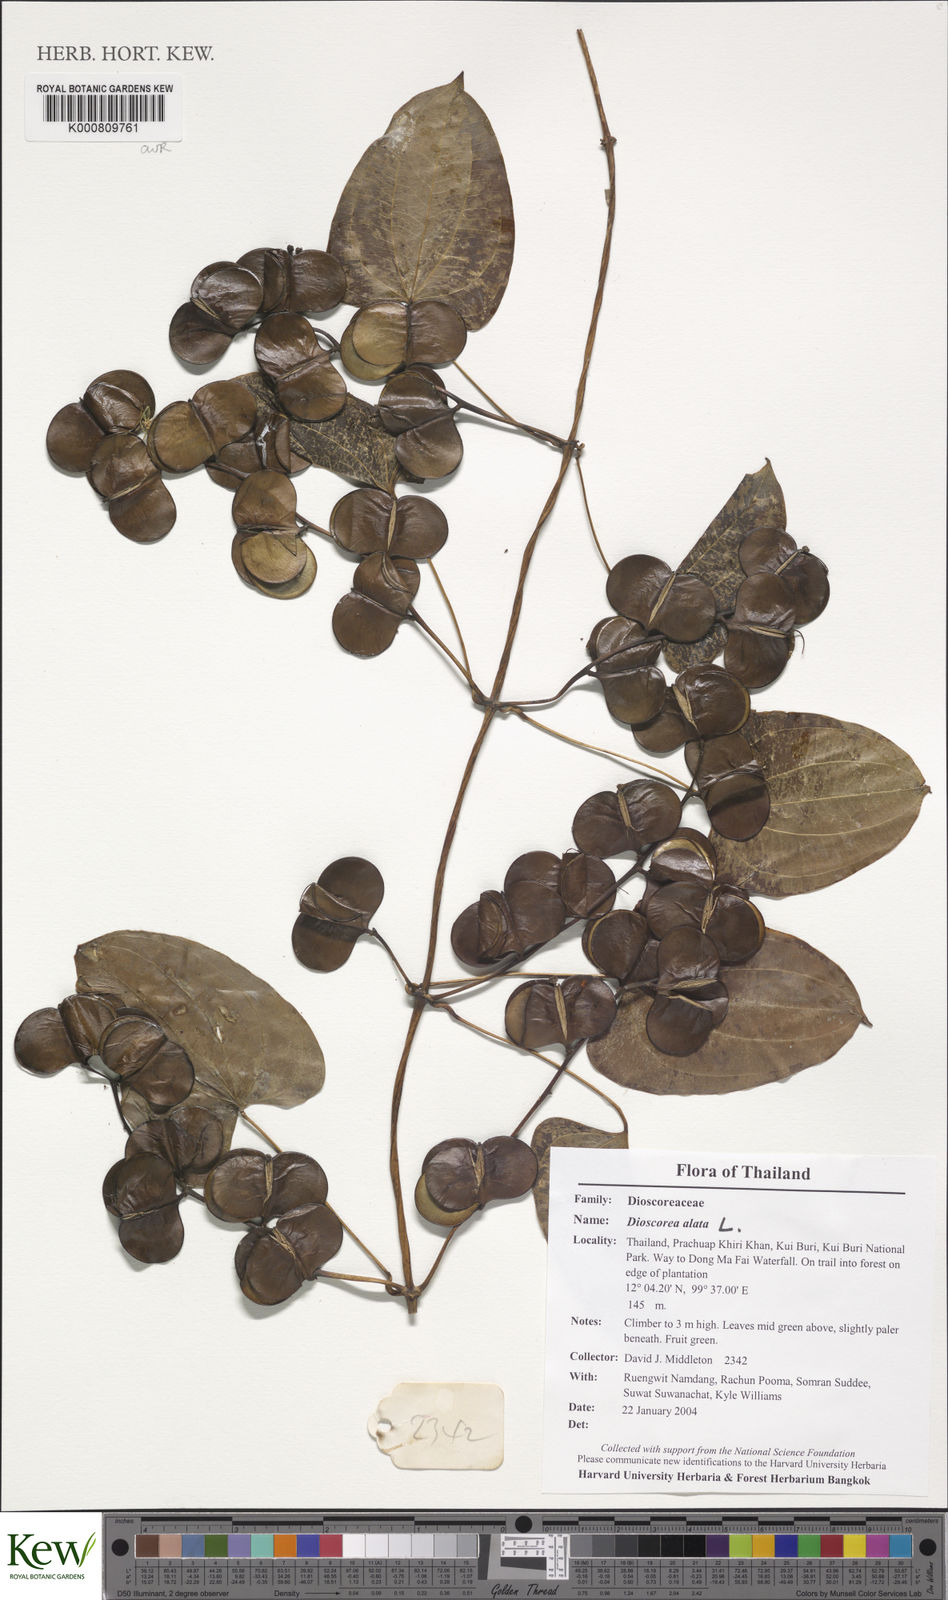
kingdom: Plantae
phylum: Tracheophyta
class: Liliopsida
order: Dioscoreales
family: Dioscoreaceae
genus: Dioscorea
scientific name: Dioscorea alata
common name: Water yam
